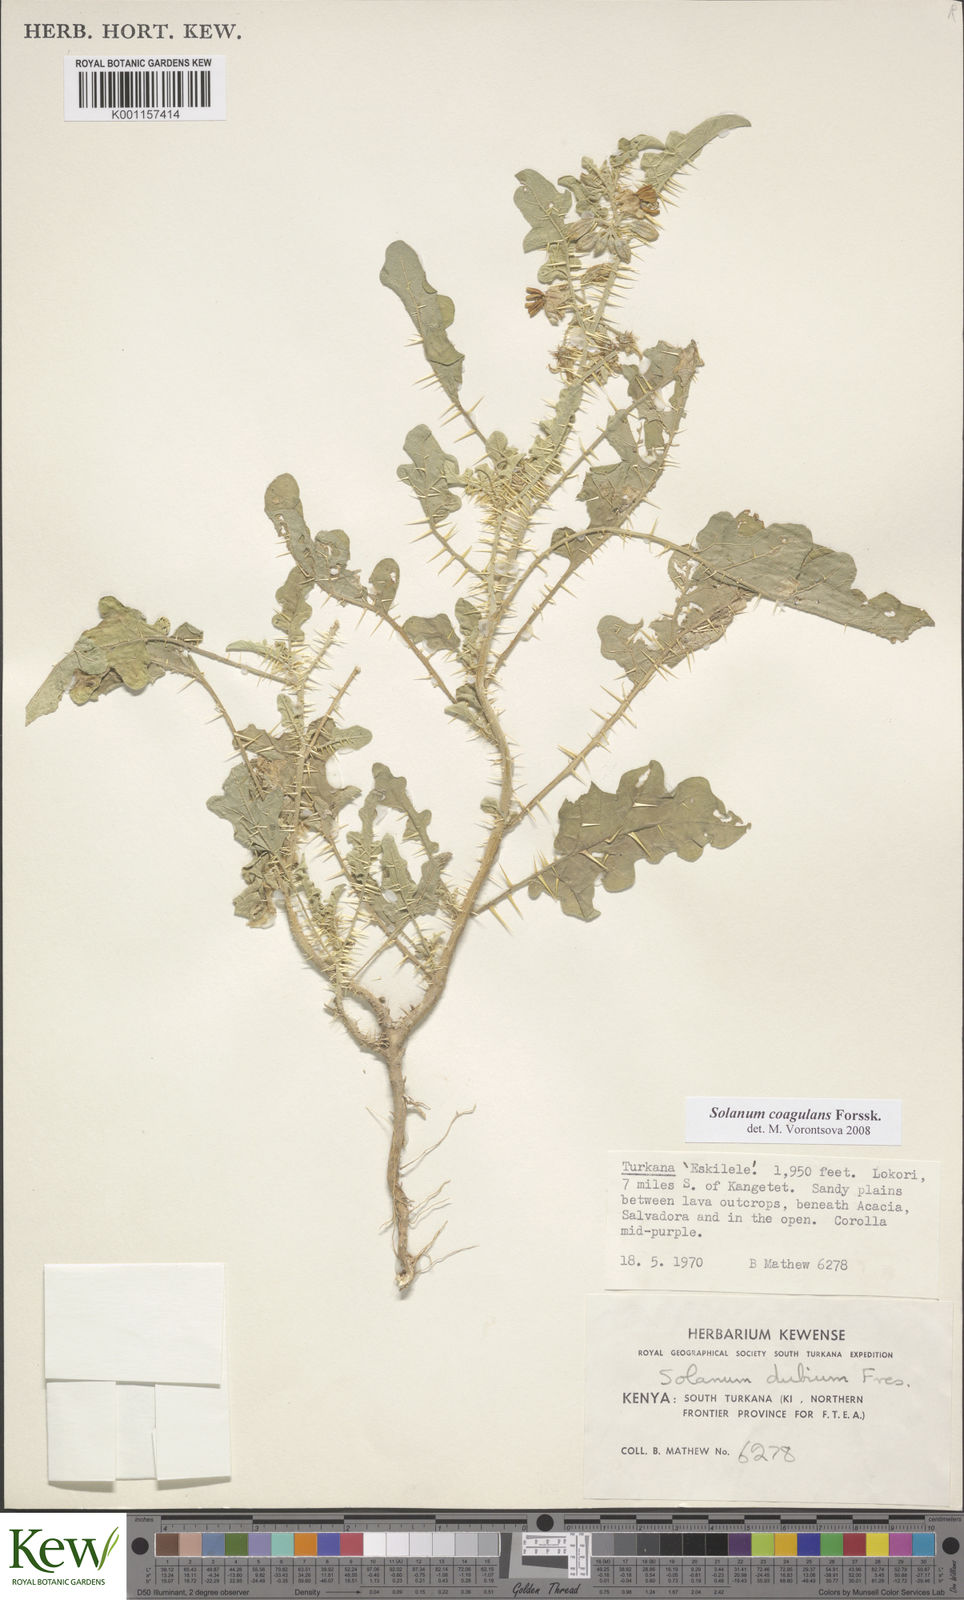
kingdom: Plantae
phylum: Tracheophyta
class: Magnoliopsida
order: Solanales
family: Solanaceae
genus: Solanum
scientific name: Solanum coagulans
